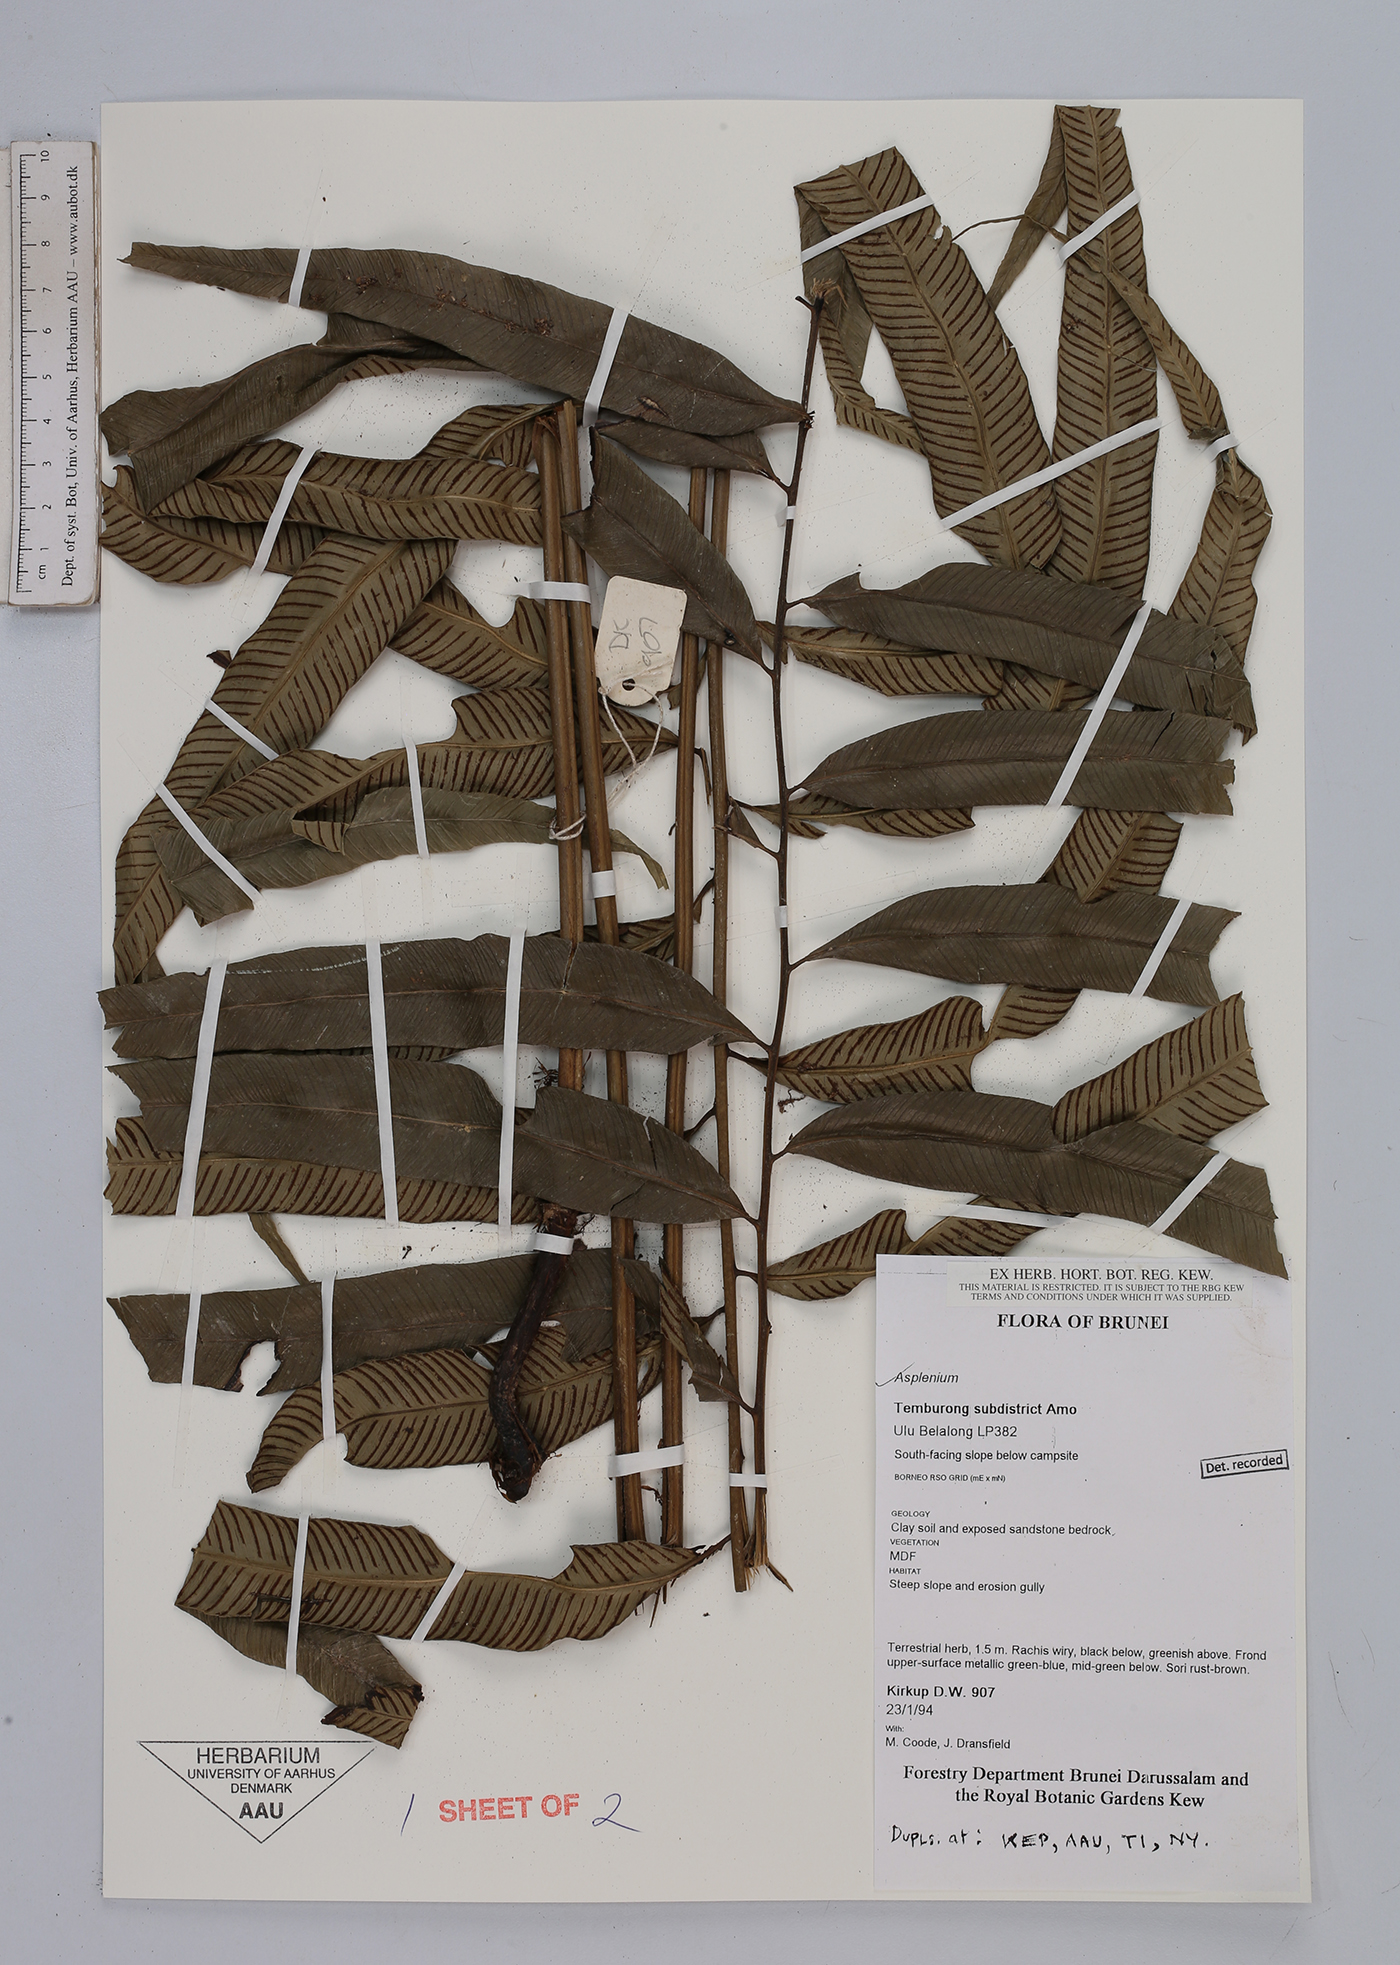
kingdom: Plantae
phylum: Tracheophyta
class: Polypodiopsida
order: Polypodiales
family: Aspleniaceae
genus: Asplenium
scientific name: Asplenium
